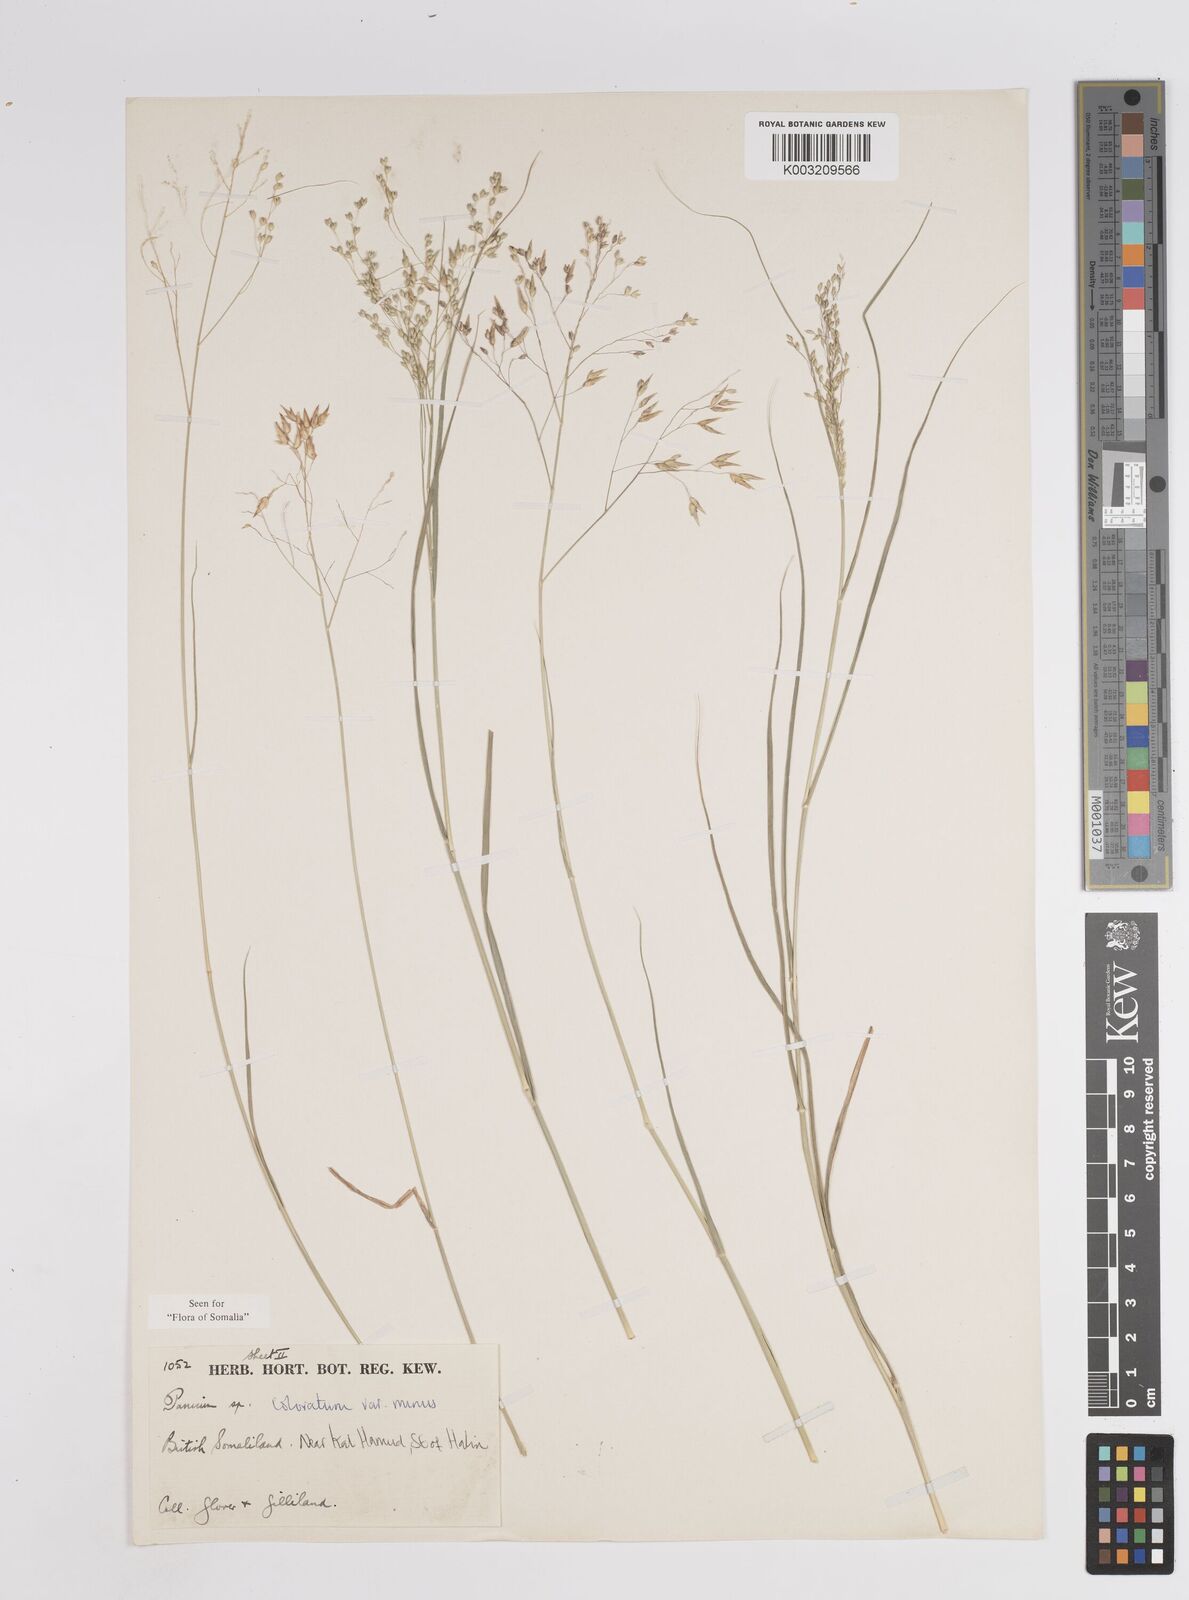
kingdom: Plantae
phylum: Tracheophyta
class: Liliopsida
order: Poales
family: Poaceae
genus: Panicum
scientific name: Panicum coloratum
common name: Kleingrass
